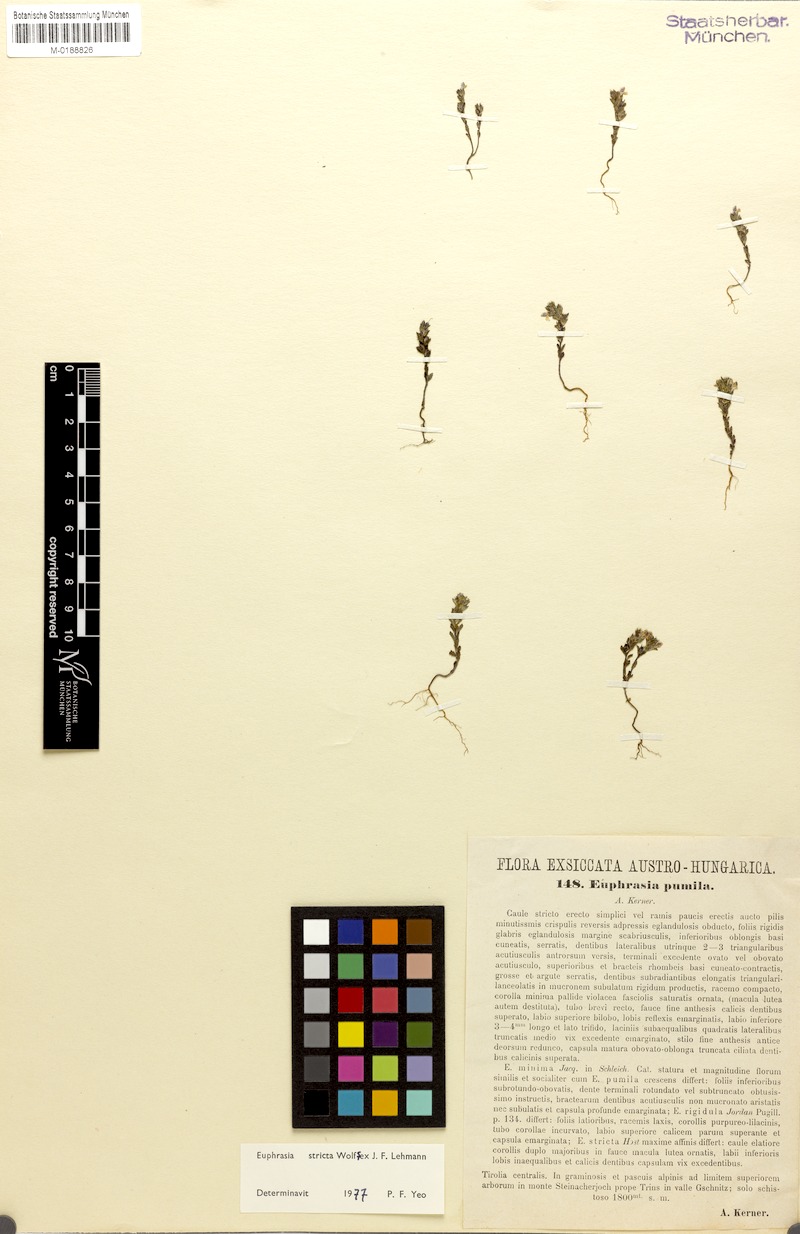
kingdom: Plantae
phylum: Tracheophyta
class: Magnoliopsida
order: Lamiales
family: Orobanchaceae
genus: Euphrasia
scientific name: Euphrasia stricta
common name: Drug eyebright
